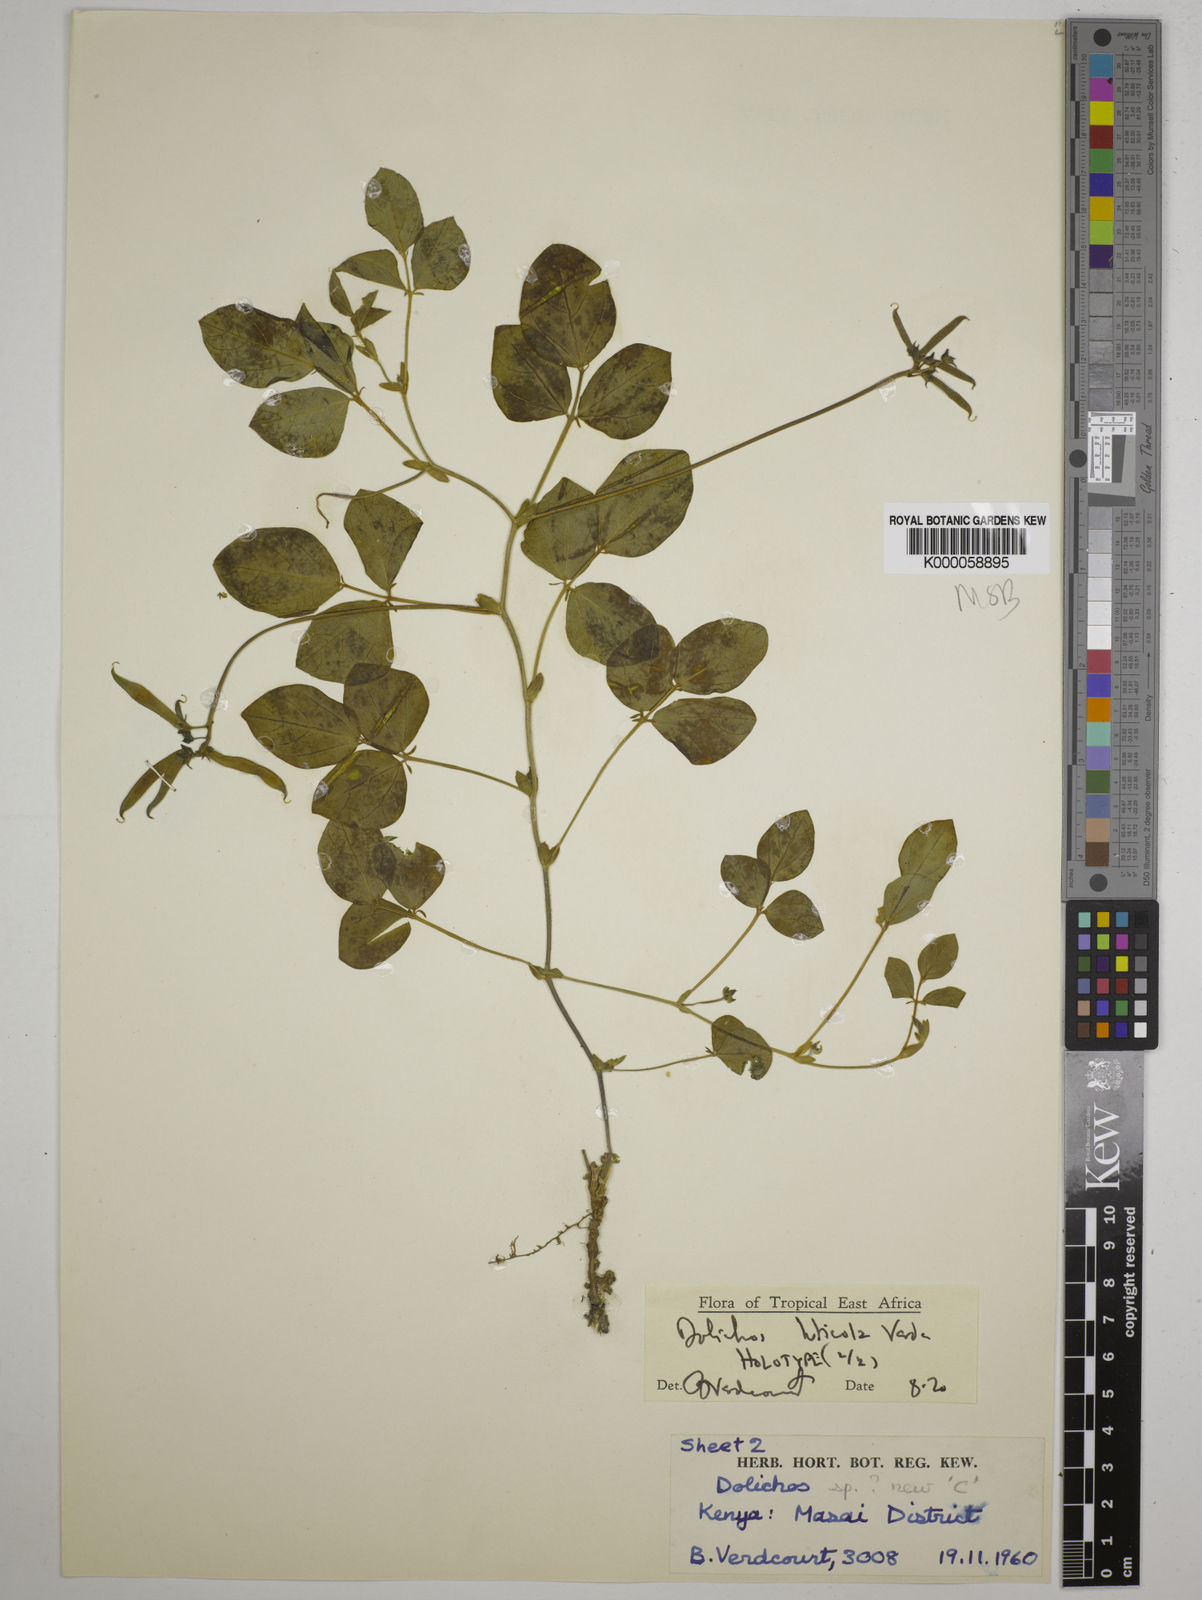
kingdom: Plantae
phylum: Tracheophyta
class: Magnoliopsida
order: Fabales
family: Fabaceae
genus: Dolichos
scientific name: Dolichos luticola
